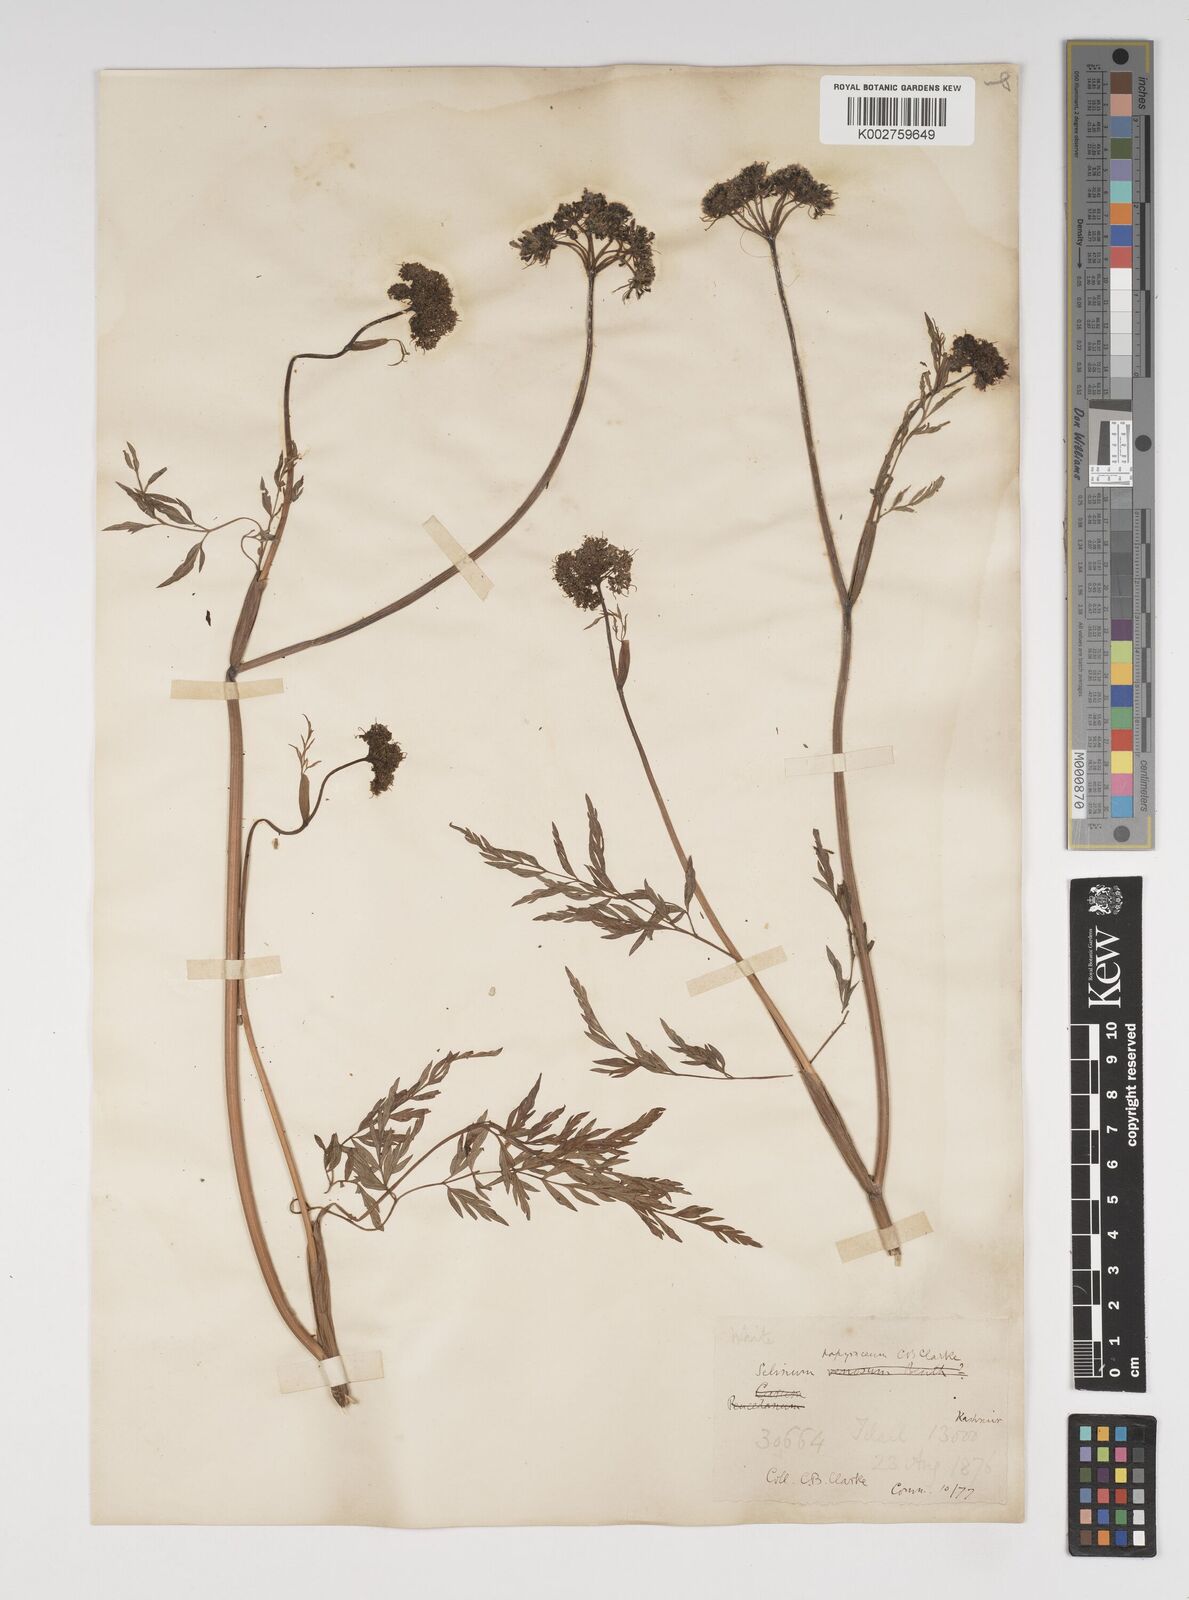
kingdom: Plantae
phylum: Tracheophyta
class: Magnoliopsida
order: Apiales
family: Apiaceae
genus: Conioselinum
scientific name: Conioselinum tataricum
